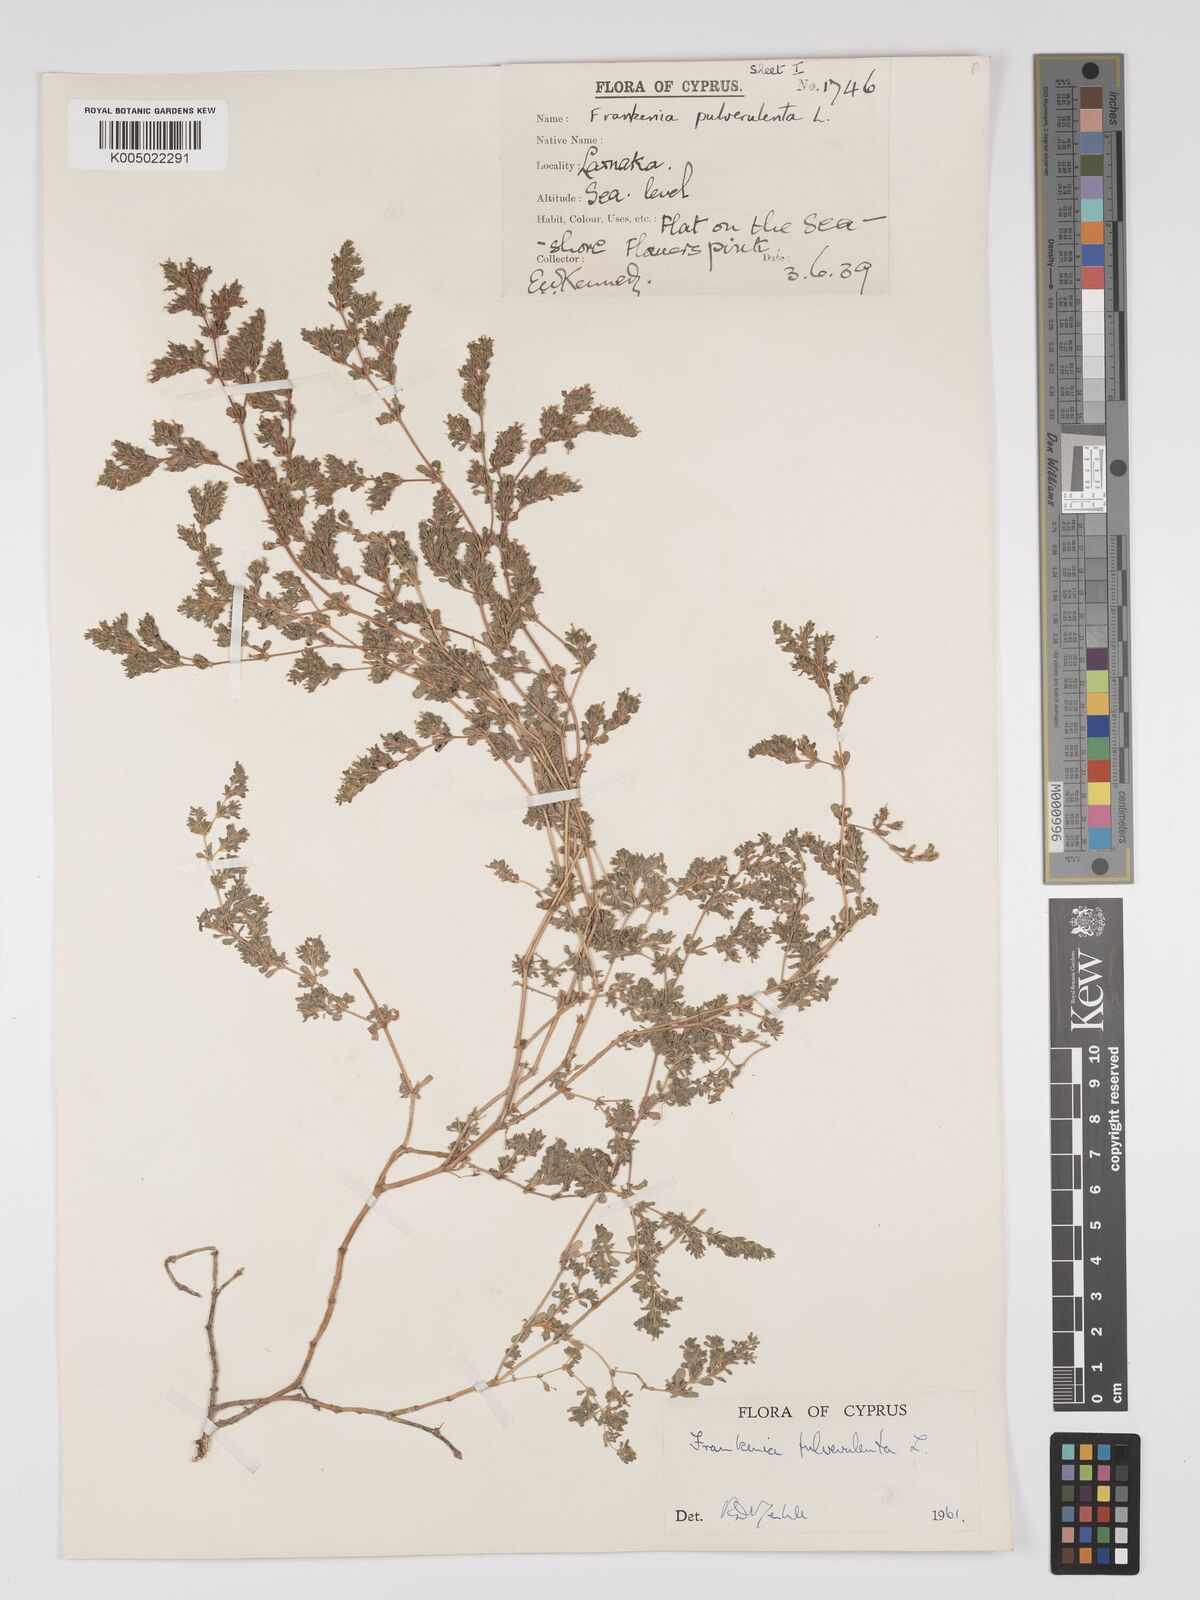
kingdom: Plantae
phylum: Tracheophyta
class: Magnoliopsida
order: Caryophyllales
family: Frankeniaceae
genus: Frankenia
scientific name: Frankenia pulverulenta
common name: European seaheath
